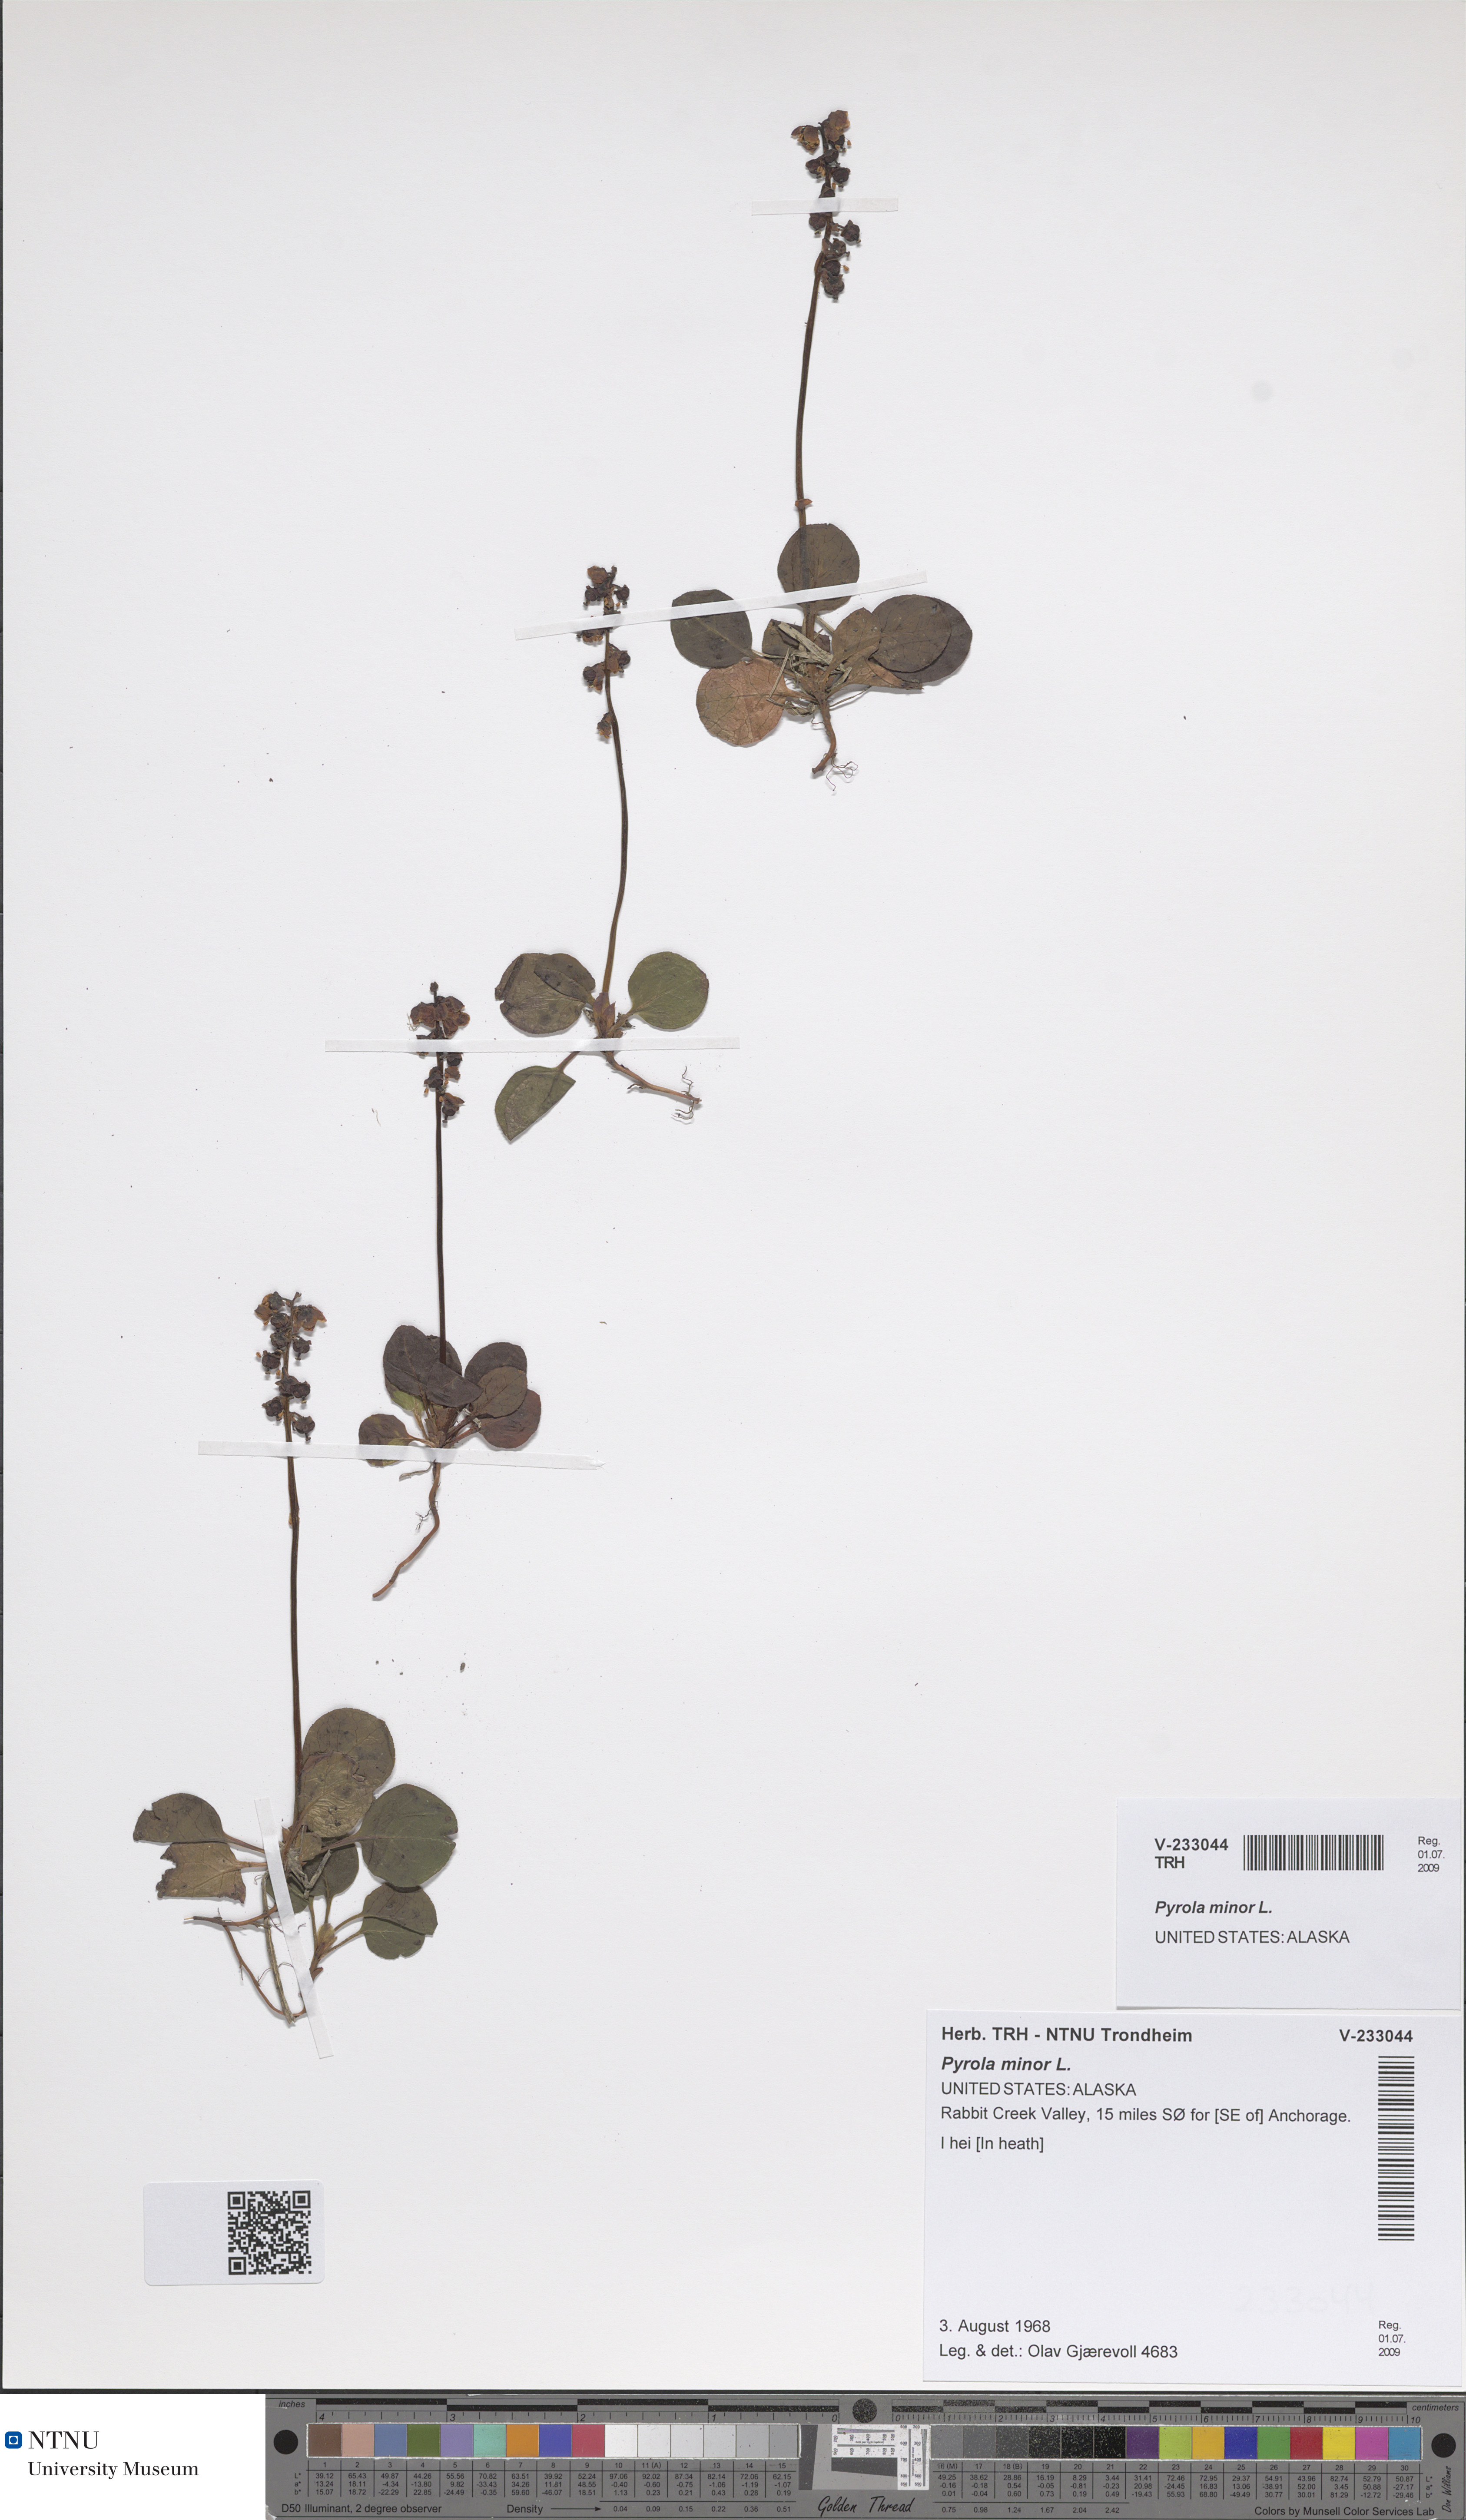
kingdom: Plantae
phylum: Tracheophyta
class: Magnoliopsida
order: Ericales
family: Ericaceae
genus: Pyrola
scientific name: Pyrola minor
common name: Common wintergreen
